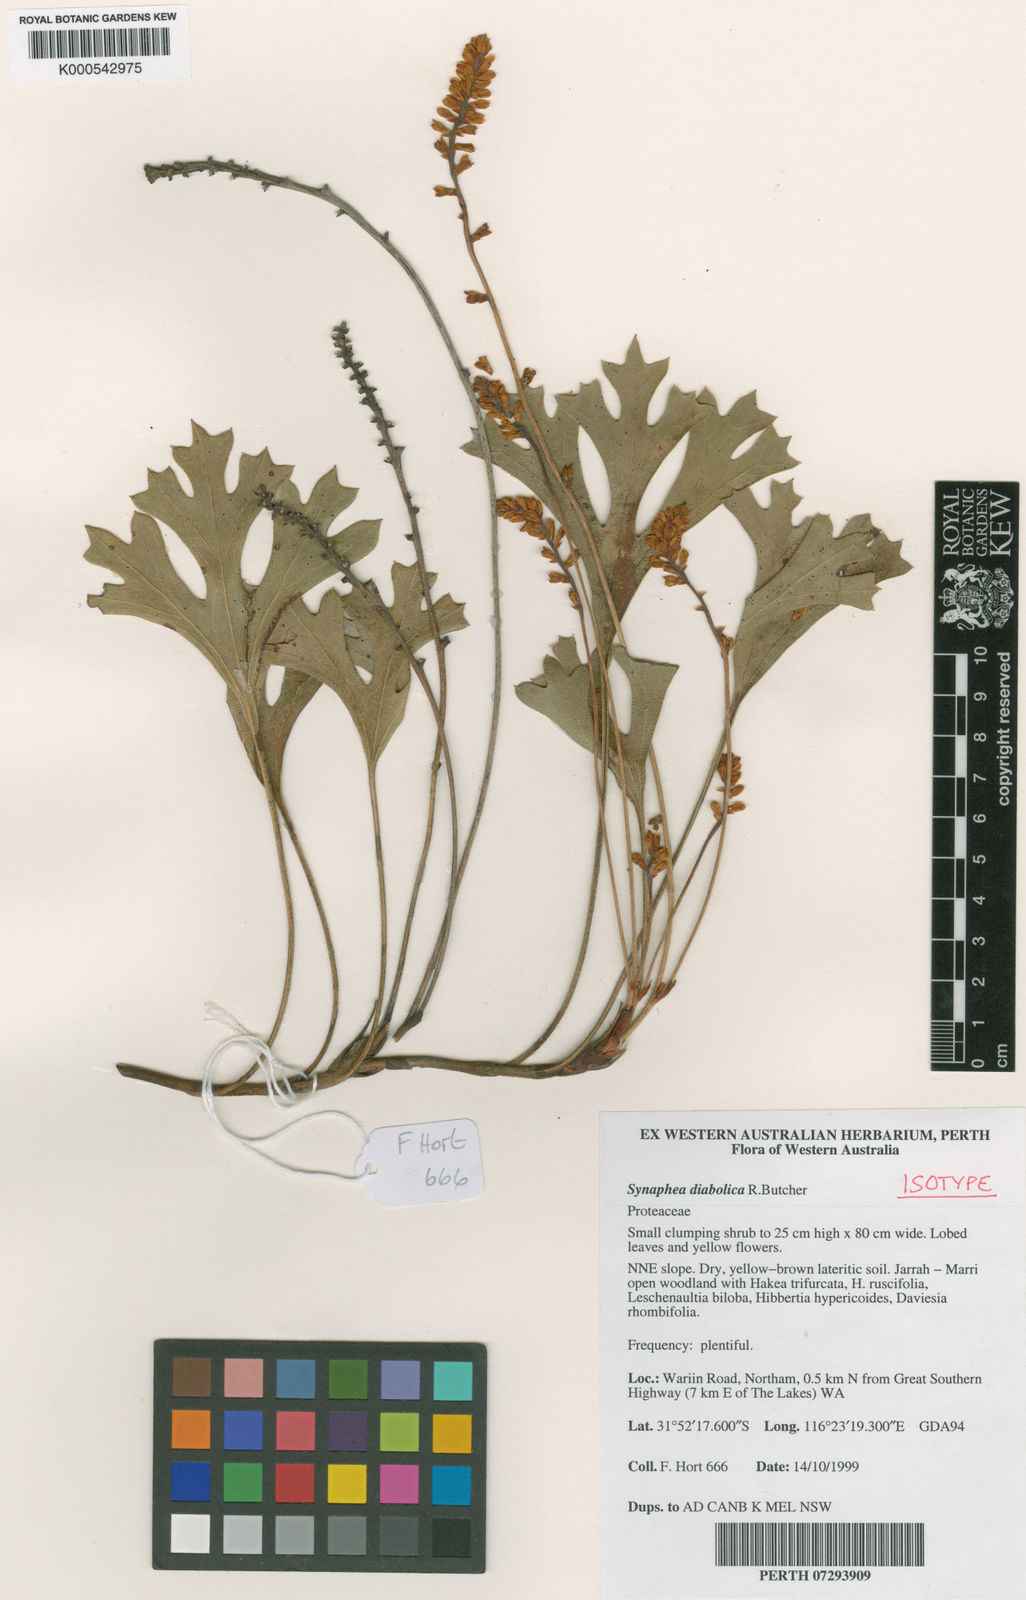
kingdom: Plantae
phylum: Tracheophyta
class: Magnoliopsida
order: Proteales
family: Proteaceae
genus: Synaphea
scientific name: Synaphea diabolica
